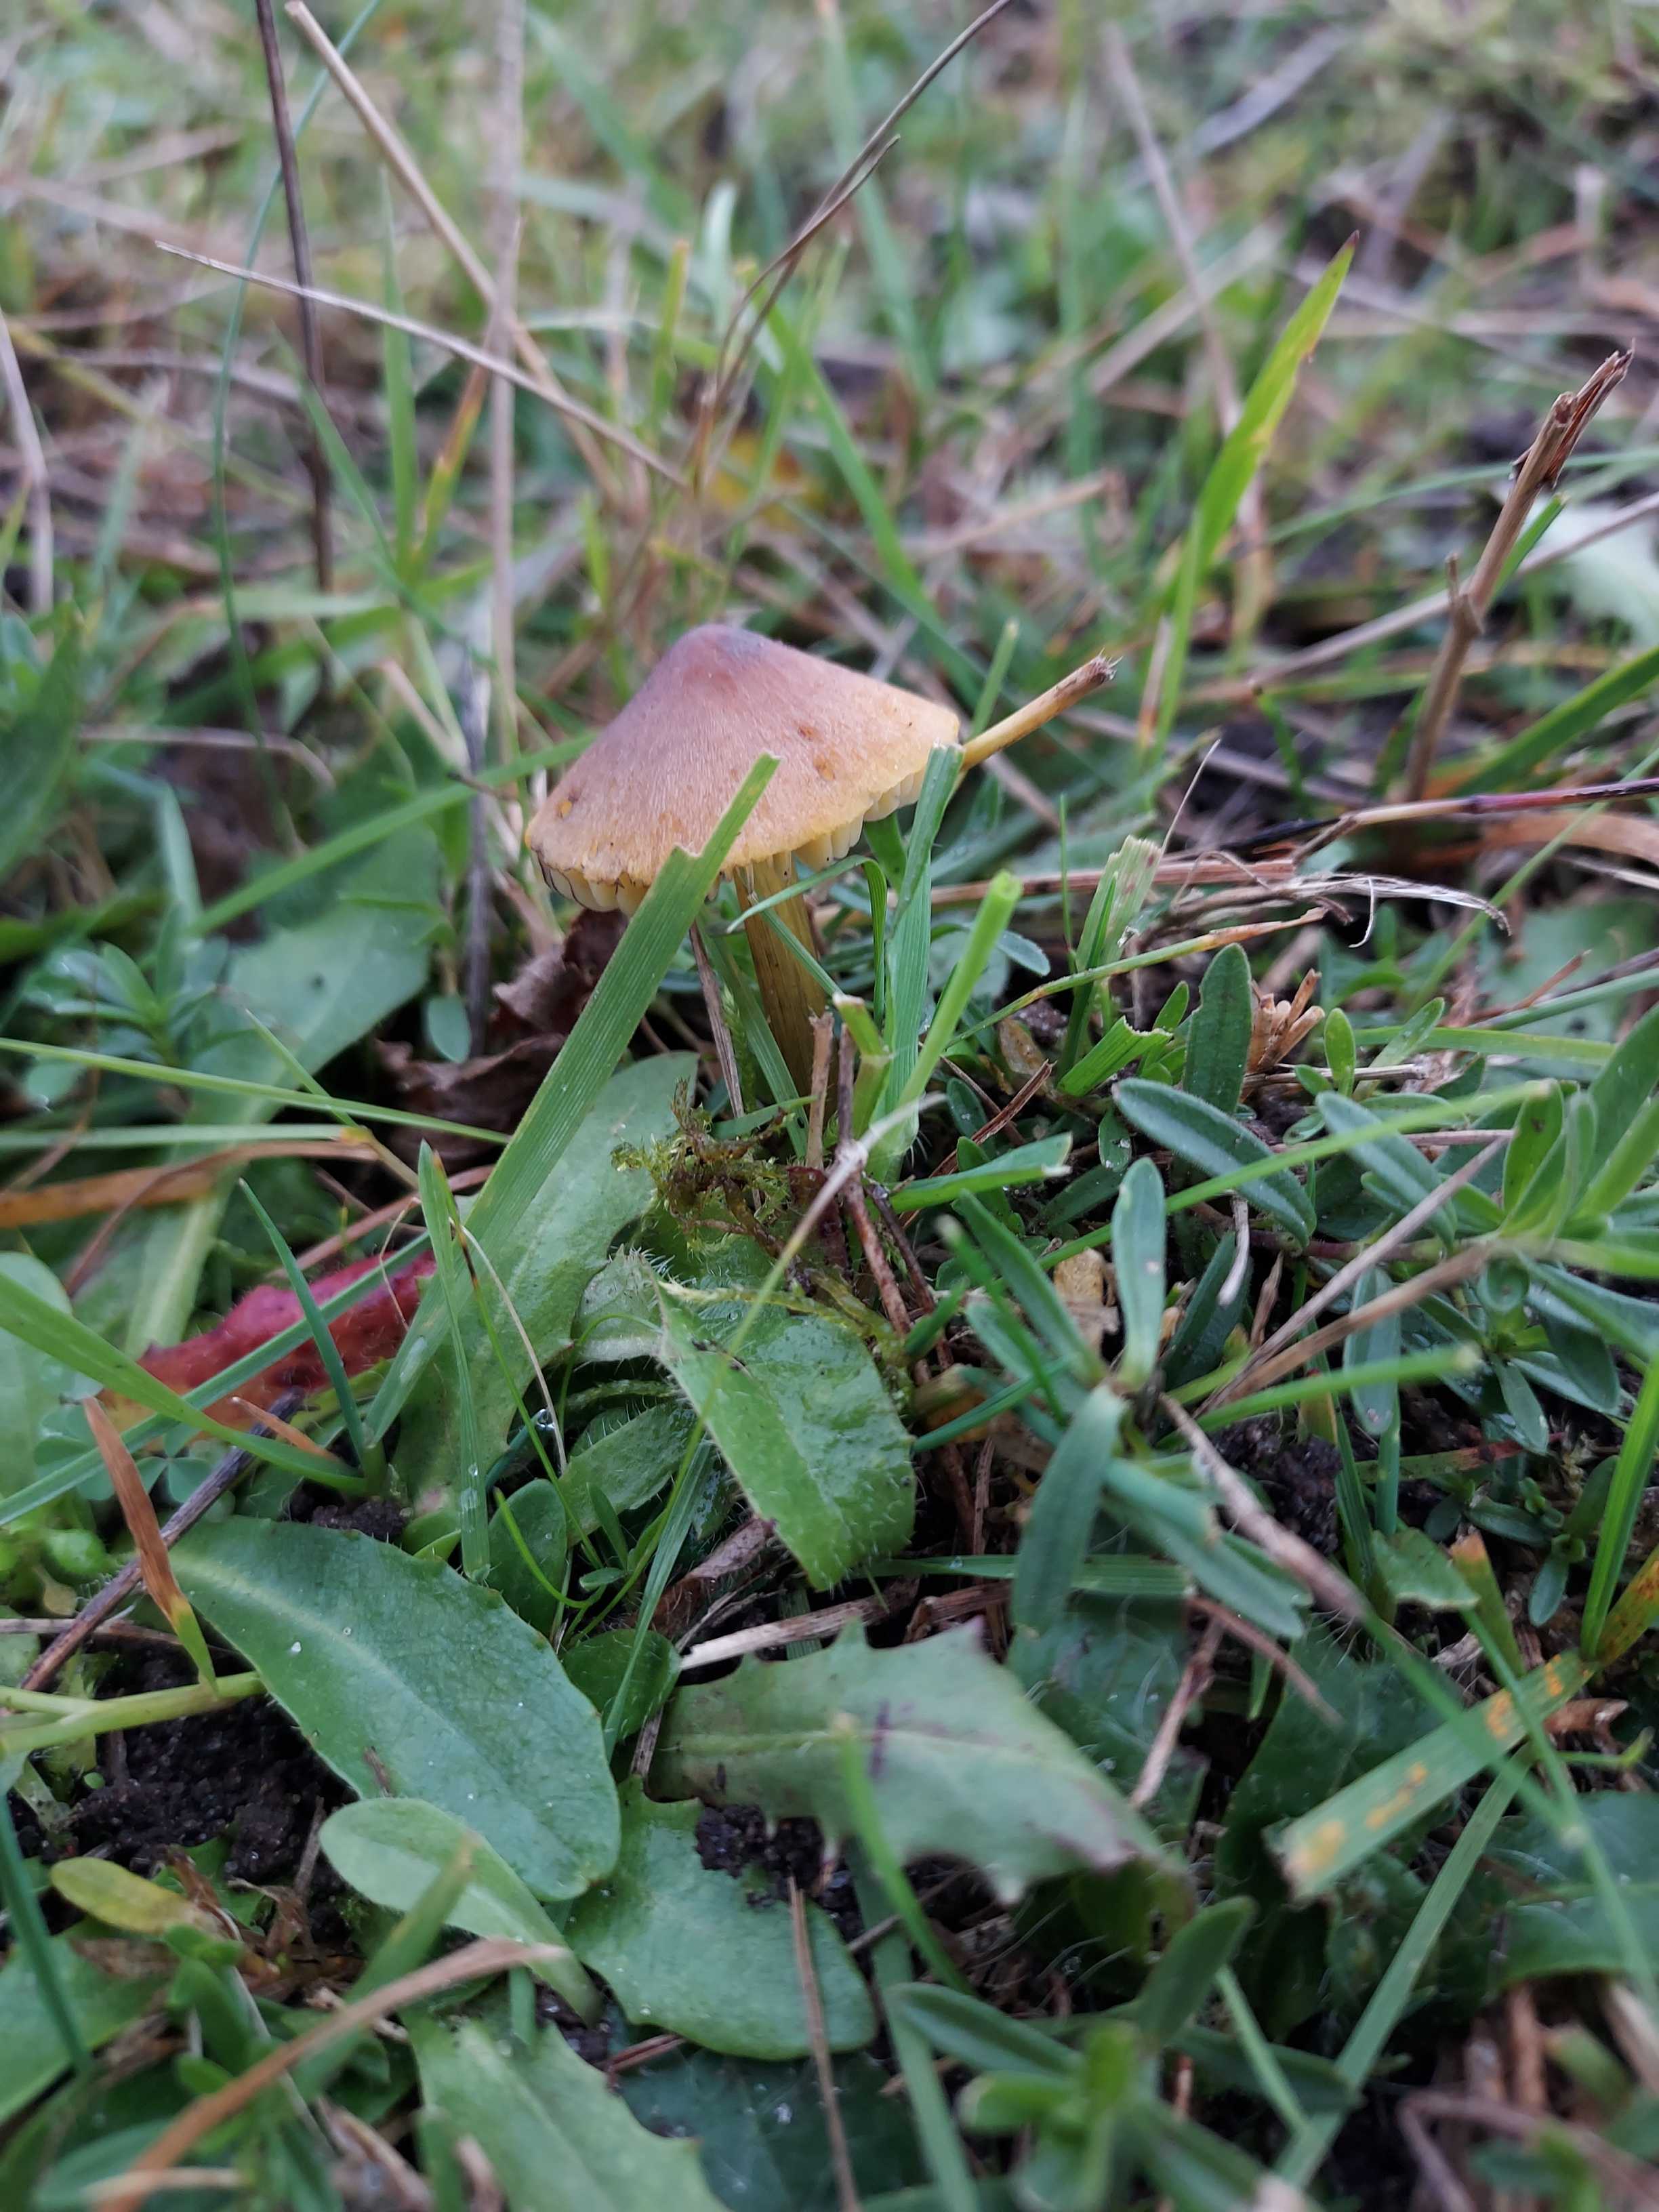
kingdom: Fungi
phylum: Basidiomycota
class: Agaricomycetes
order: Agaricales
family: Hygrophoraceae
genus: Hygrocybe
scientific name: Hygrocybe conica
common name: kegle-vokshat
